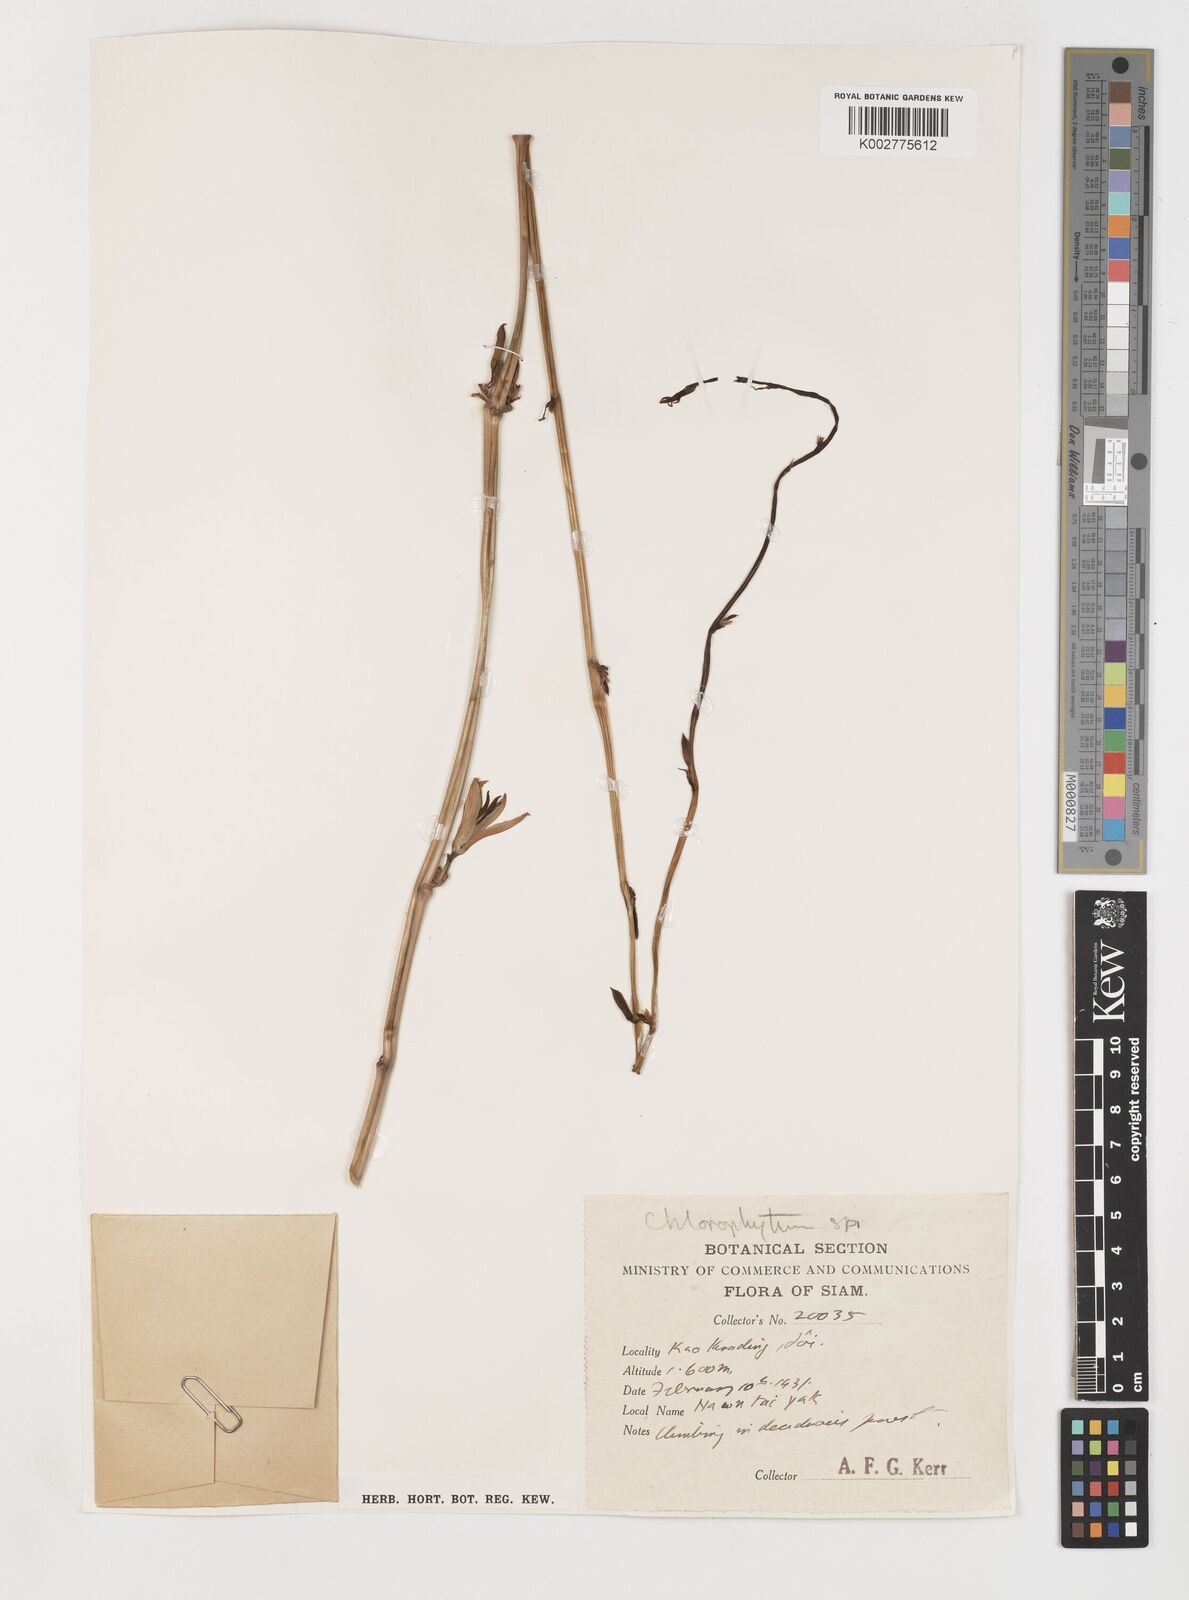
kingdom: Plantae
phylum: Tracheophyta
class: Liliopsida
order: Pandanales
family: Stemonaceae
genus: Stemona
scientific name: Stemona aphylla
